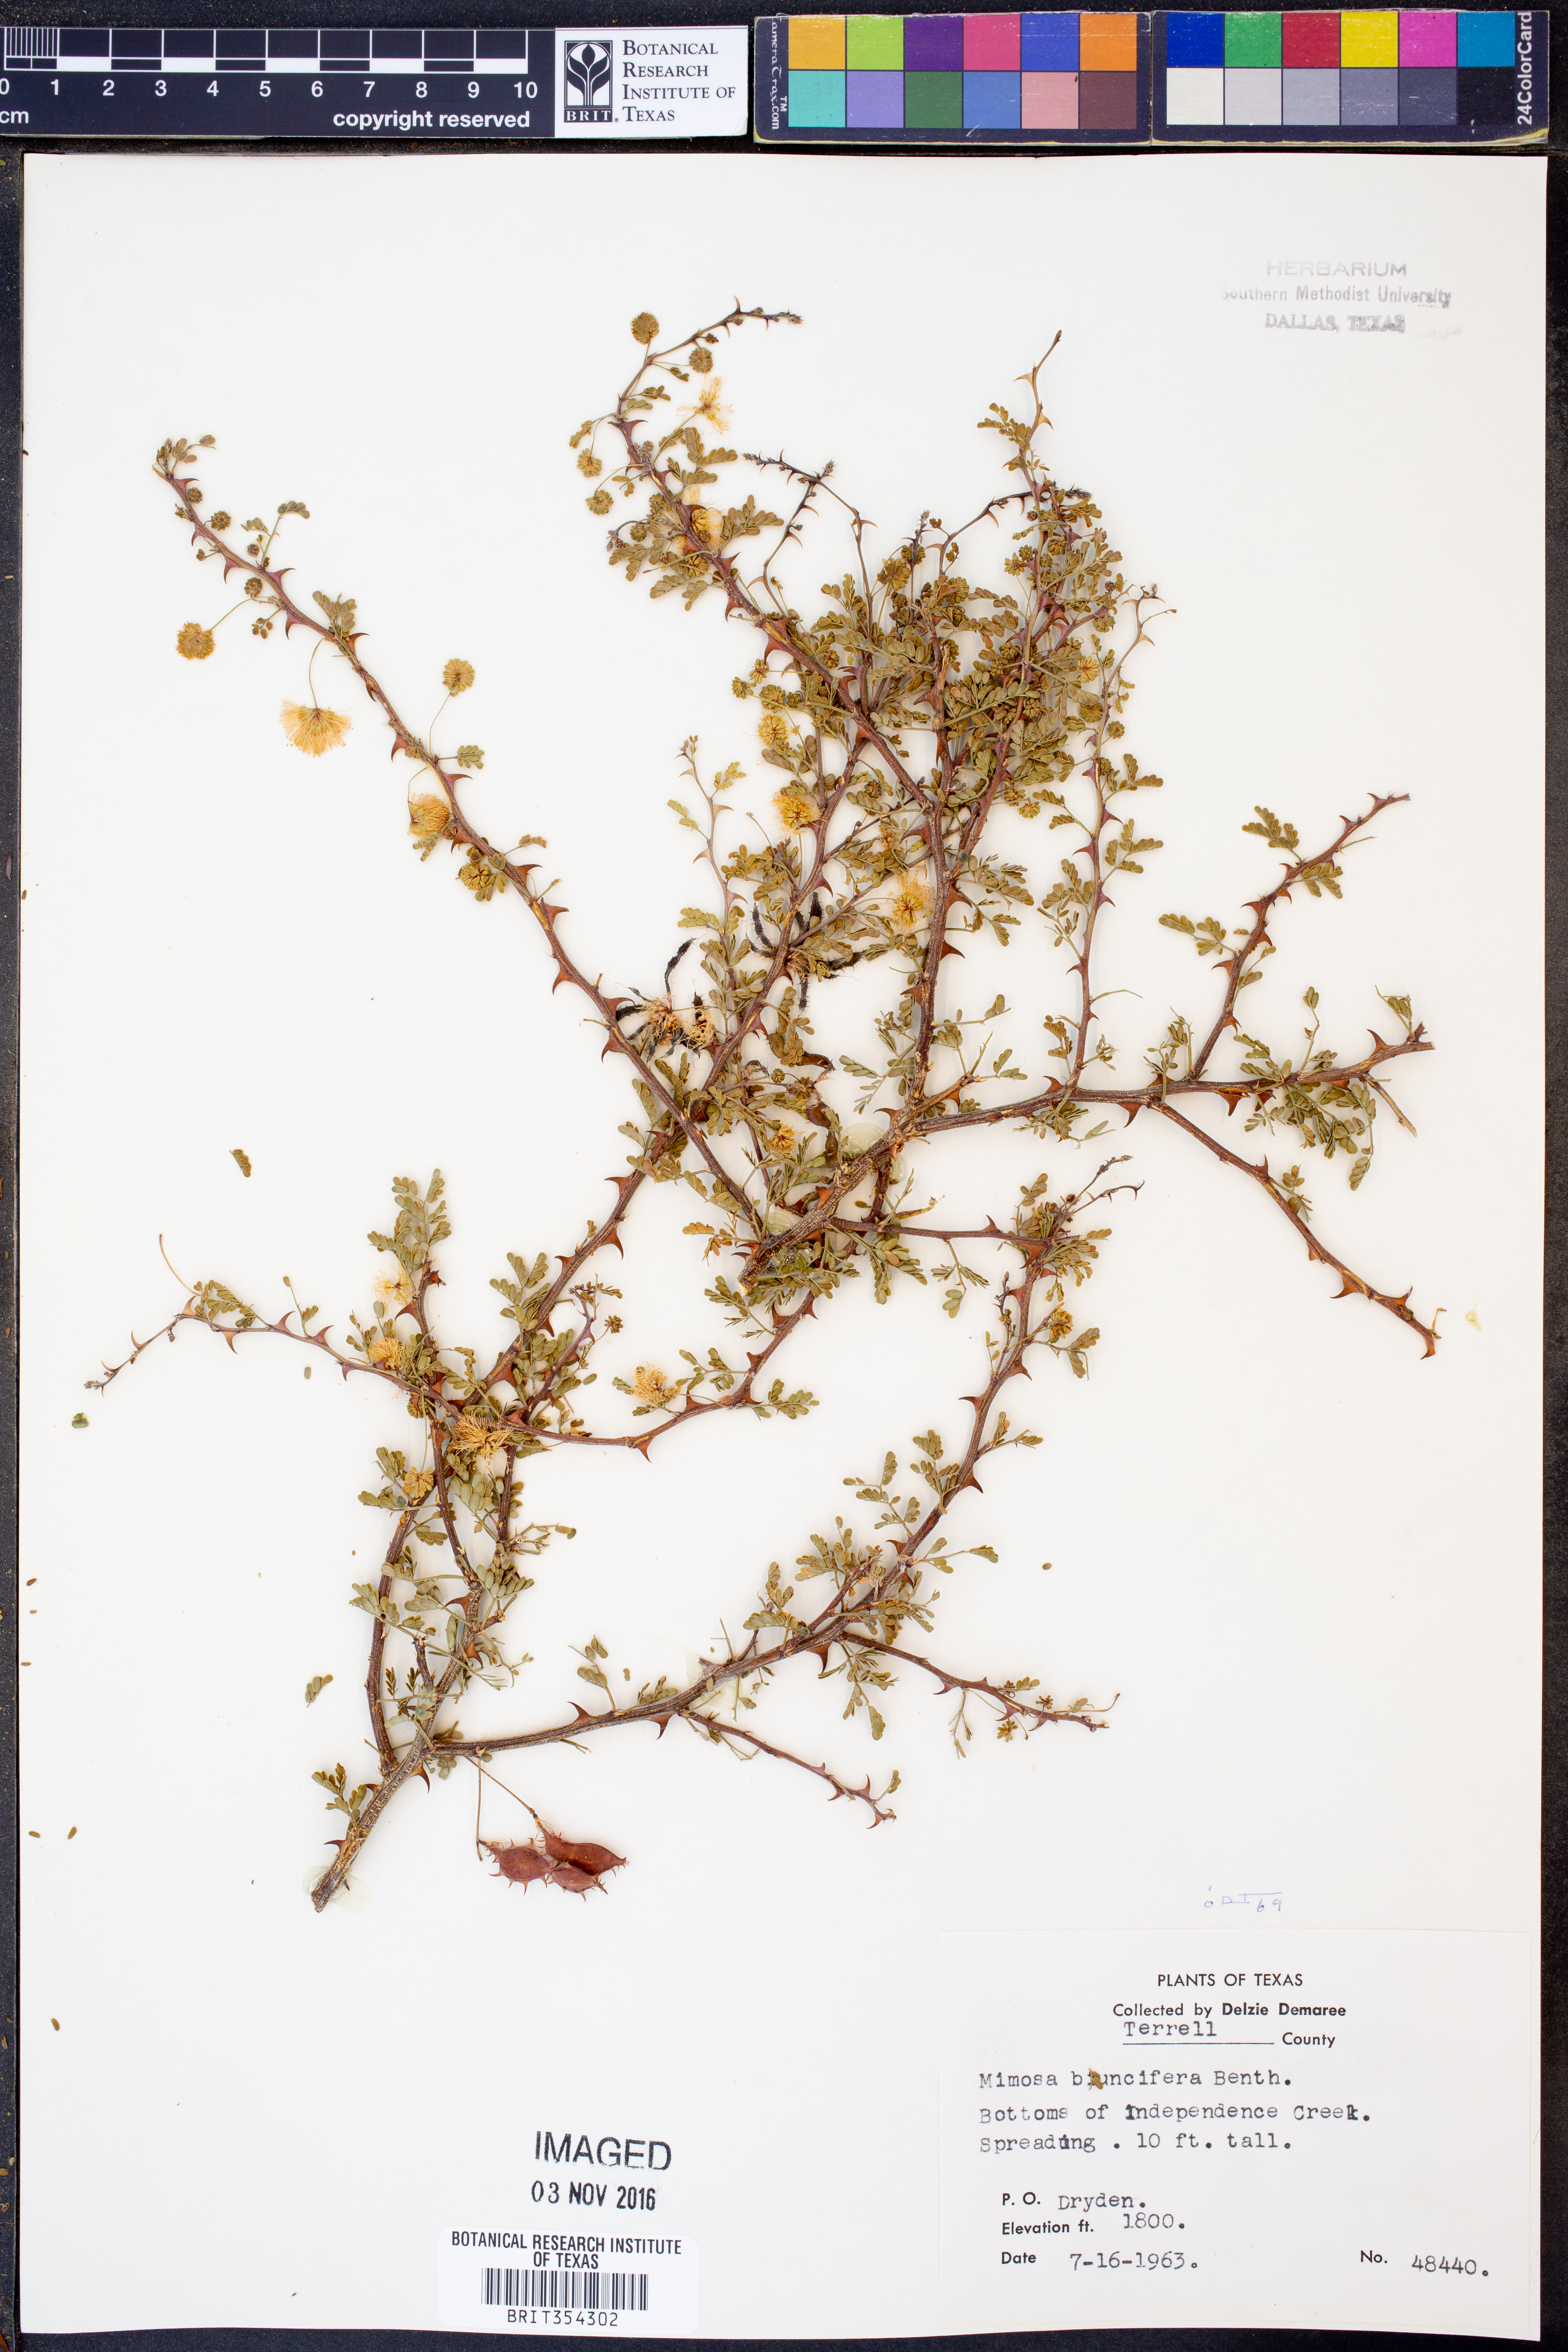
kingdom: Plantae
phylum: Tracheophyta
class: Magnoliopsida
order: Fabales
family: Fabaceae
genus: Mimosa
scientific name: Mimosa biuncifera
